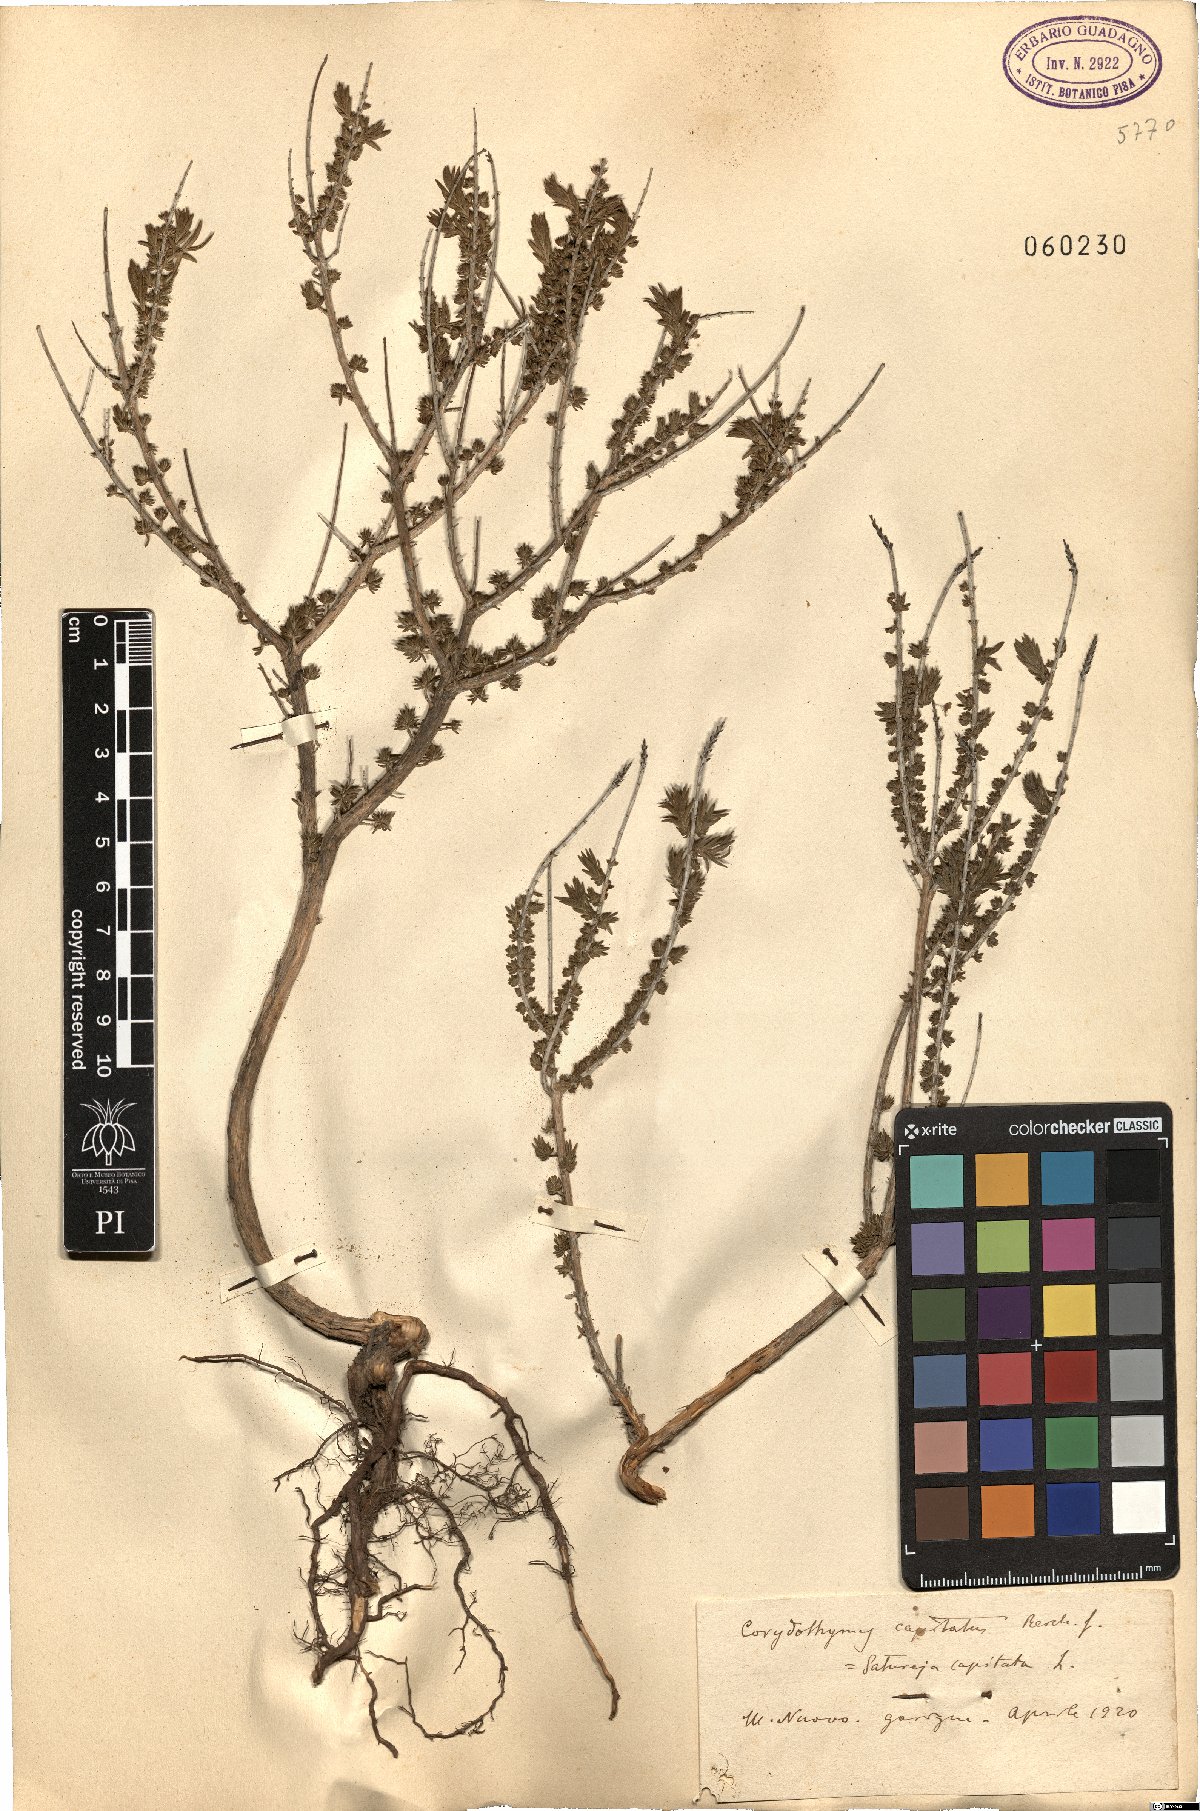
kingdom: Plantae
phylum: Tracheophyta
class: Magnoliopsida
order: Lamiales
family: Lamiaceae
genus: Thymbra
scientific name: Thymbra capitata
